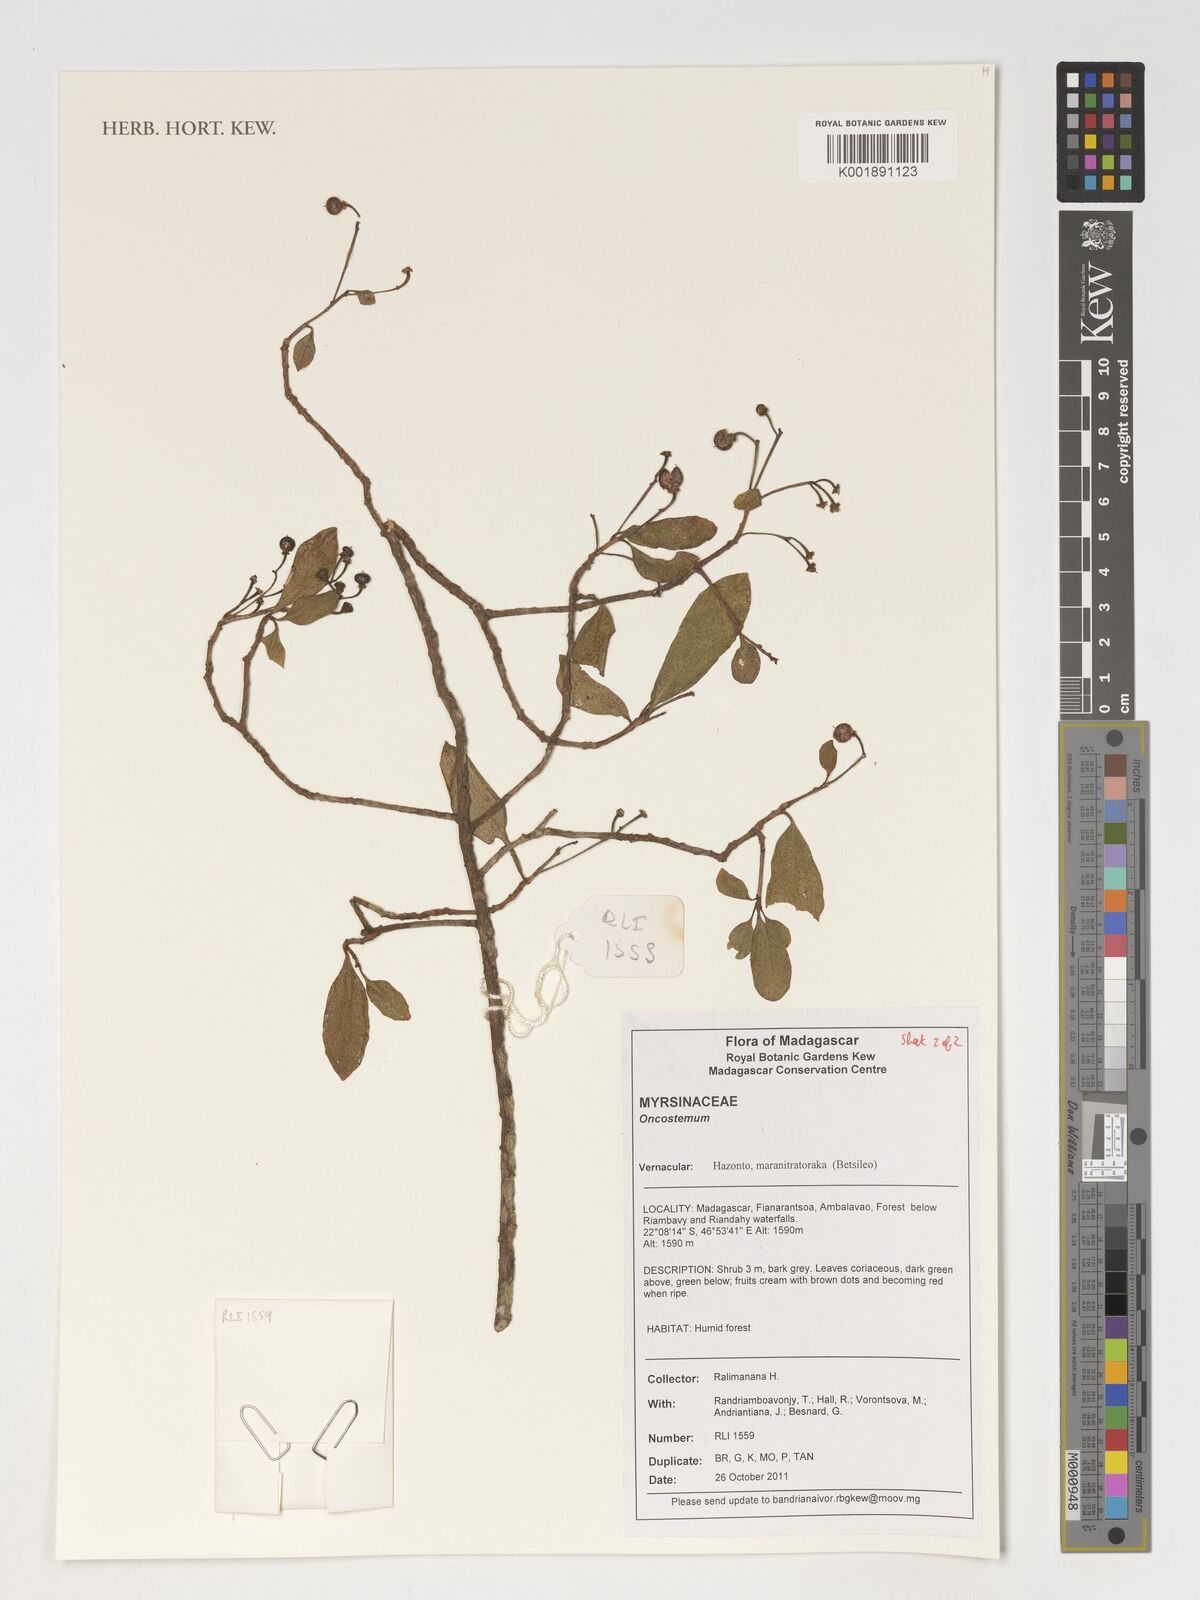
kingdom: Plantae
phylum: Tracheophyta
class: Magnoliopsida
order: Ericales
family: Primulaceae
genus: Oncostemum
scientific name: Oncostemum
